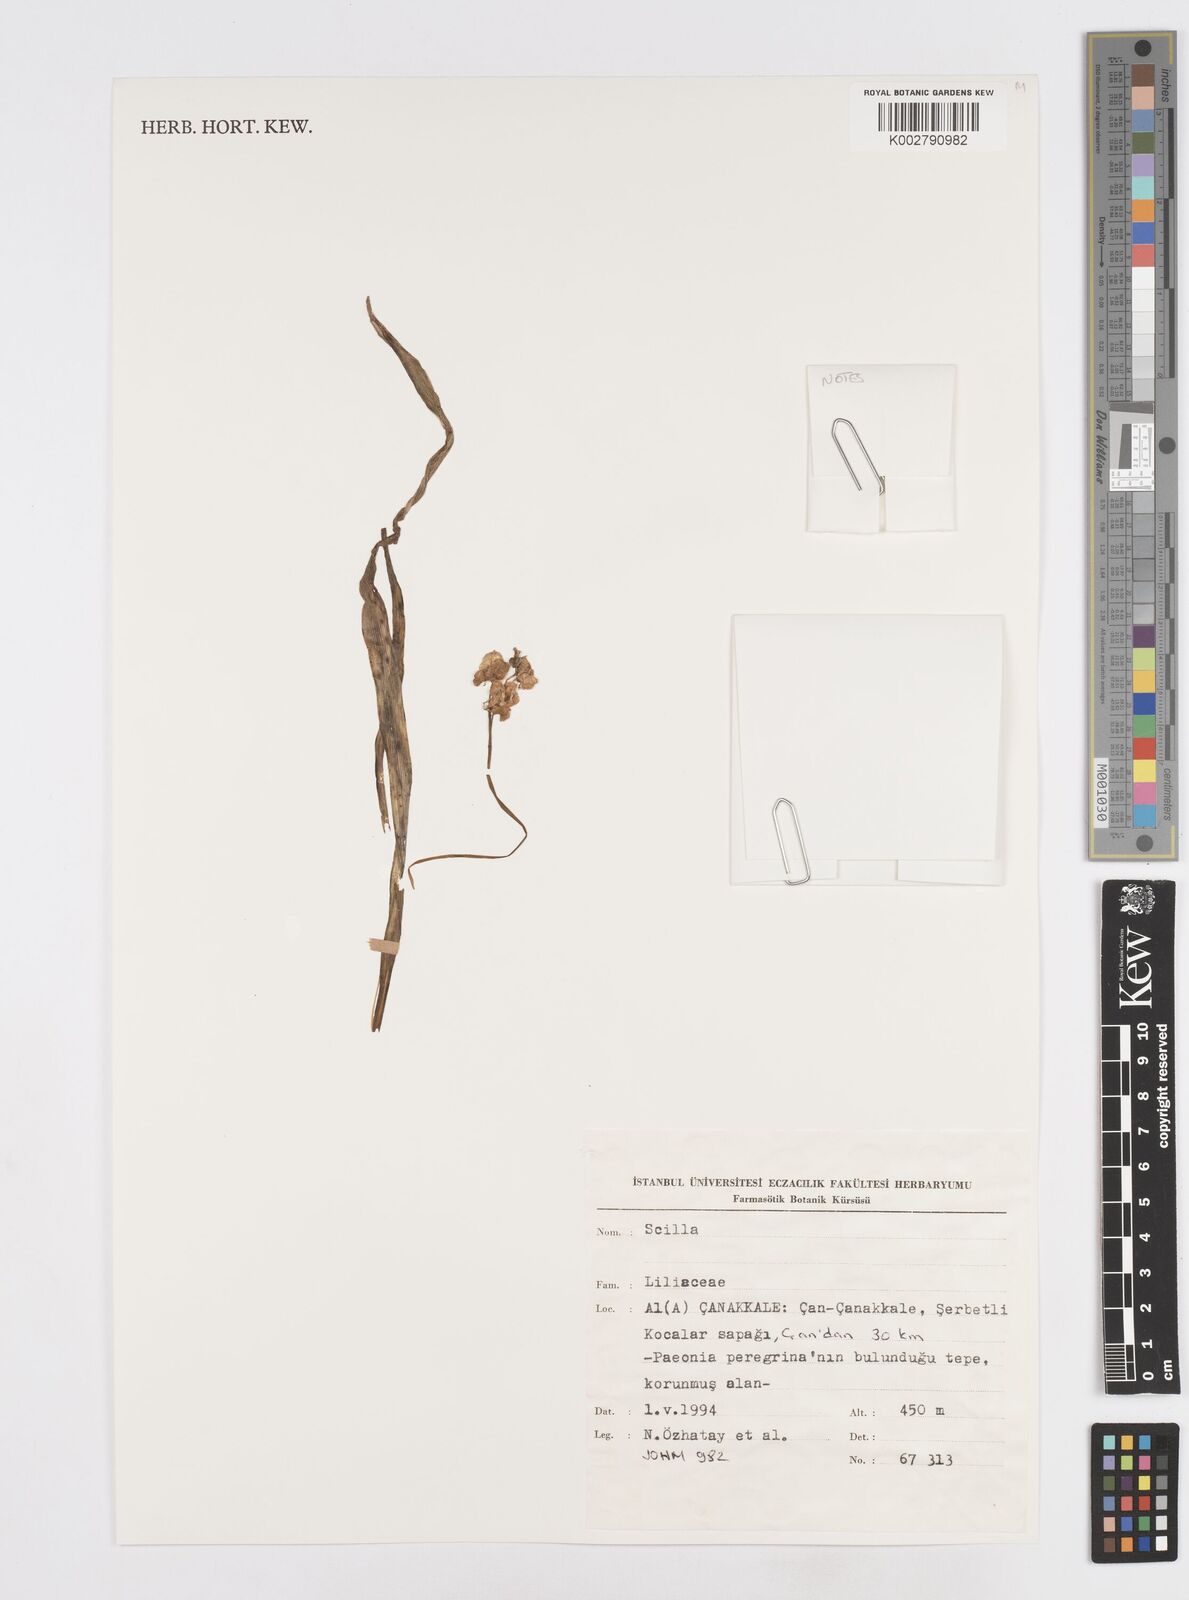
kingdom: Plantae
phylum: Tracheophyta
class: Liliopsida
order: Asparagales
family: Asparagaceae
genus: Scilla
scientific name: Scilla
